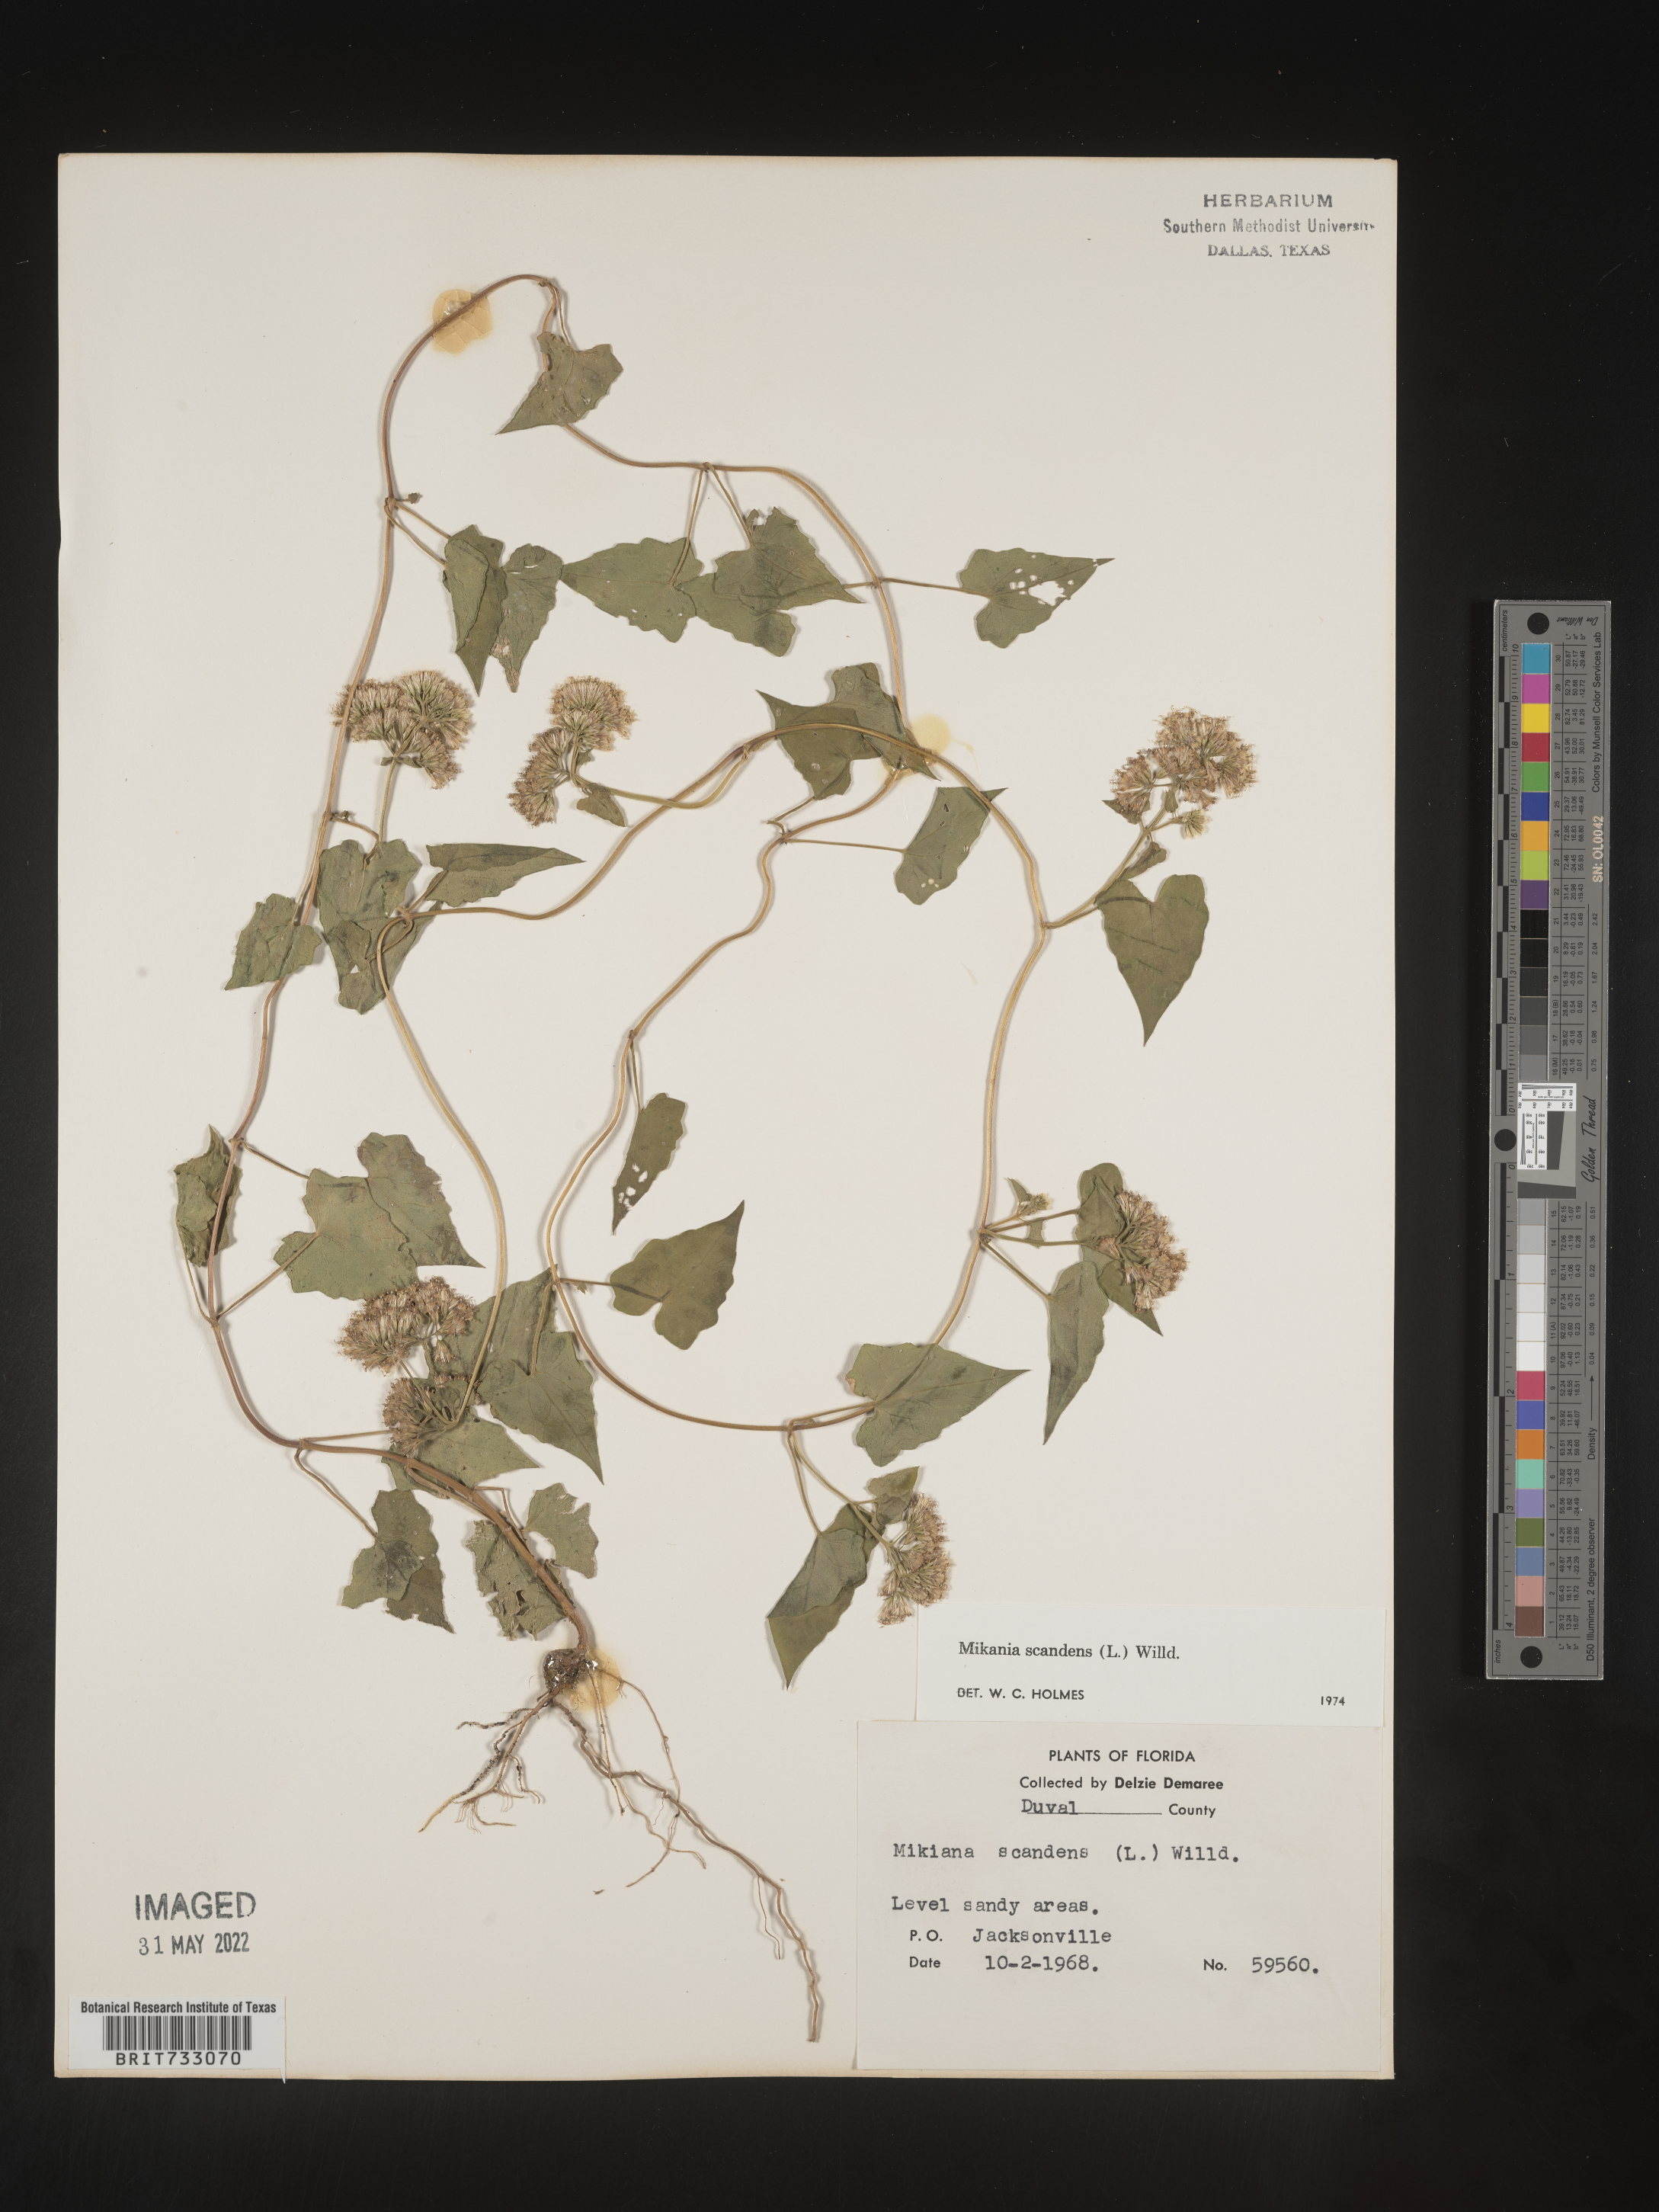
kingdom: Plantae
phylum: Tracheophyta
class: Magnoliopsida
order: Asterales
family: Asteraceae
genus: Mikania
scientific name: Mikania scandens
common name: Climbing hempvine
